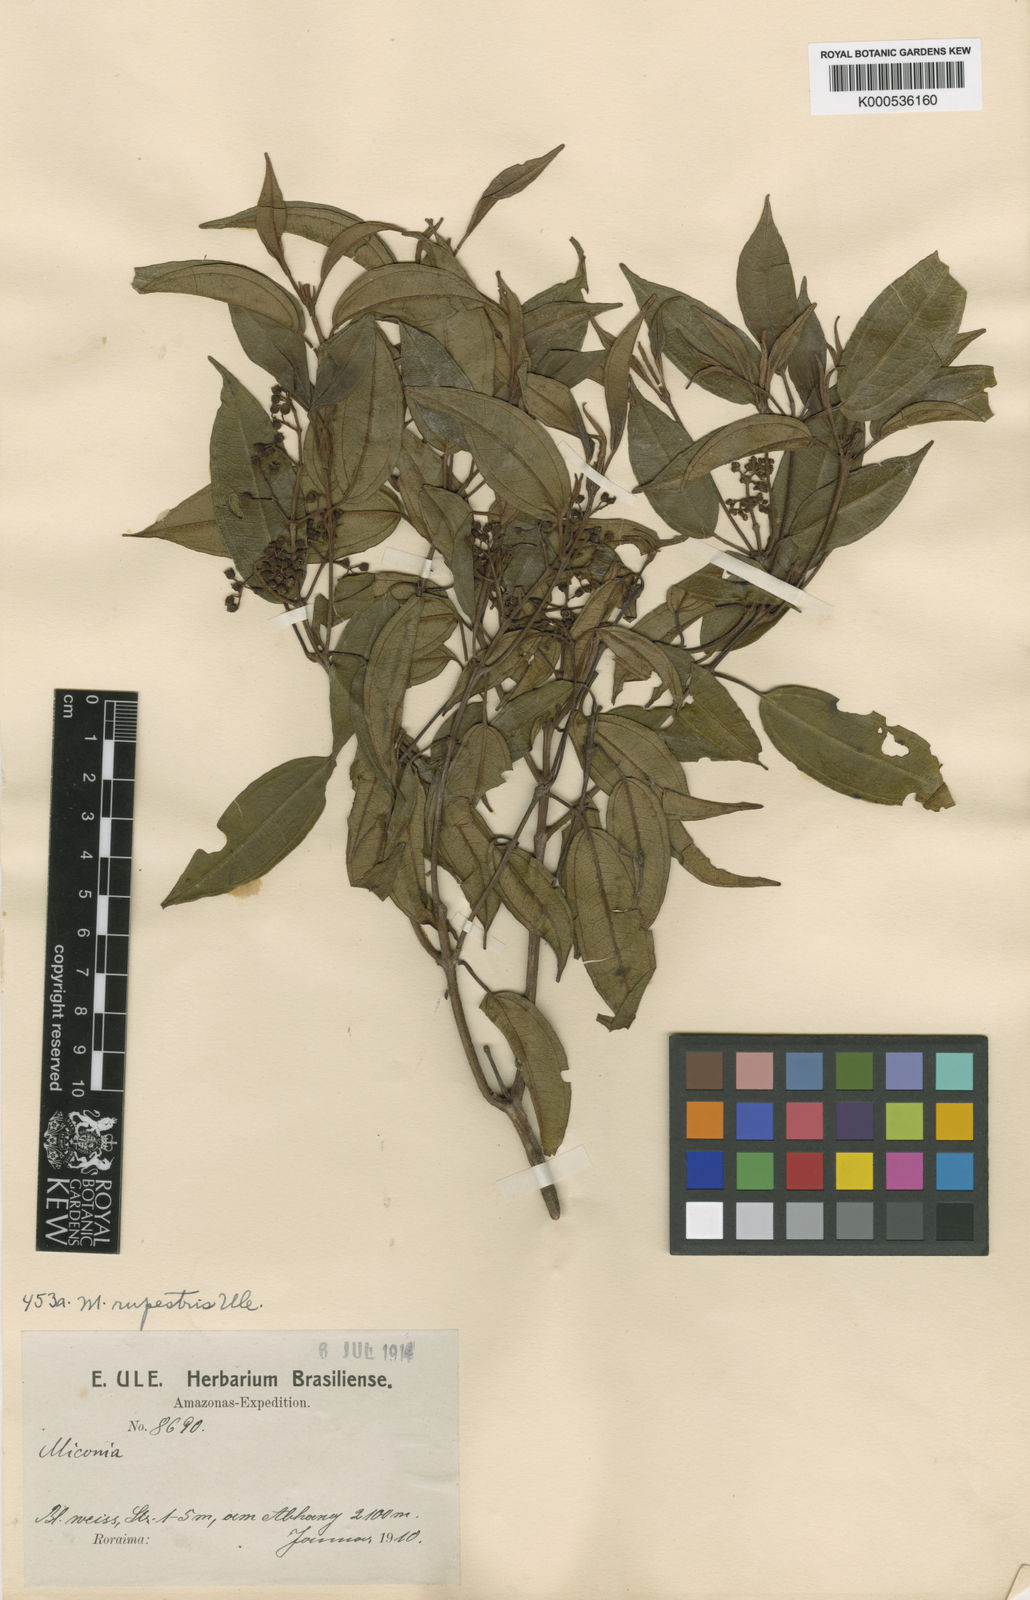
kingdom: Plantae
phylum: Tracheophyta
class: Magnoliopsida
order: Myrtales
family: Melastomataceae
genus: Miconia
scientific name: Miconia rupestris
